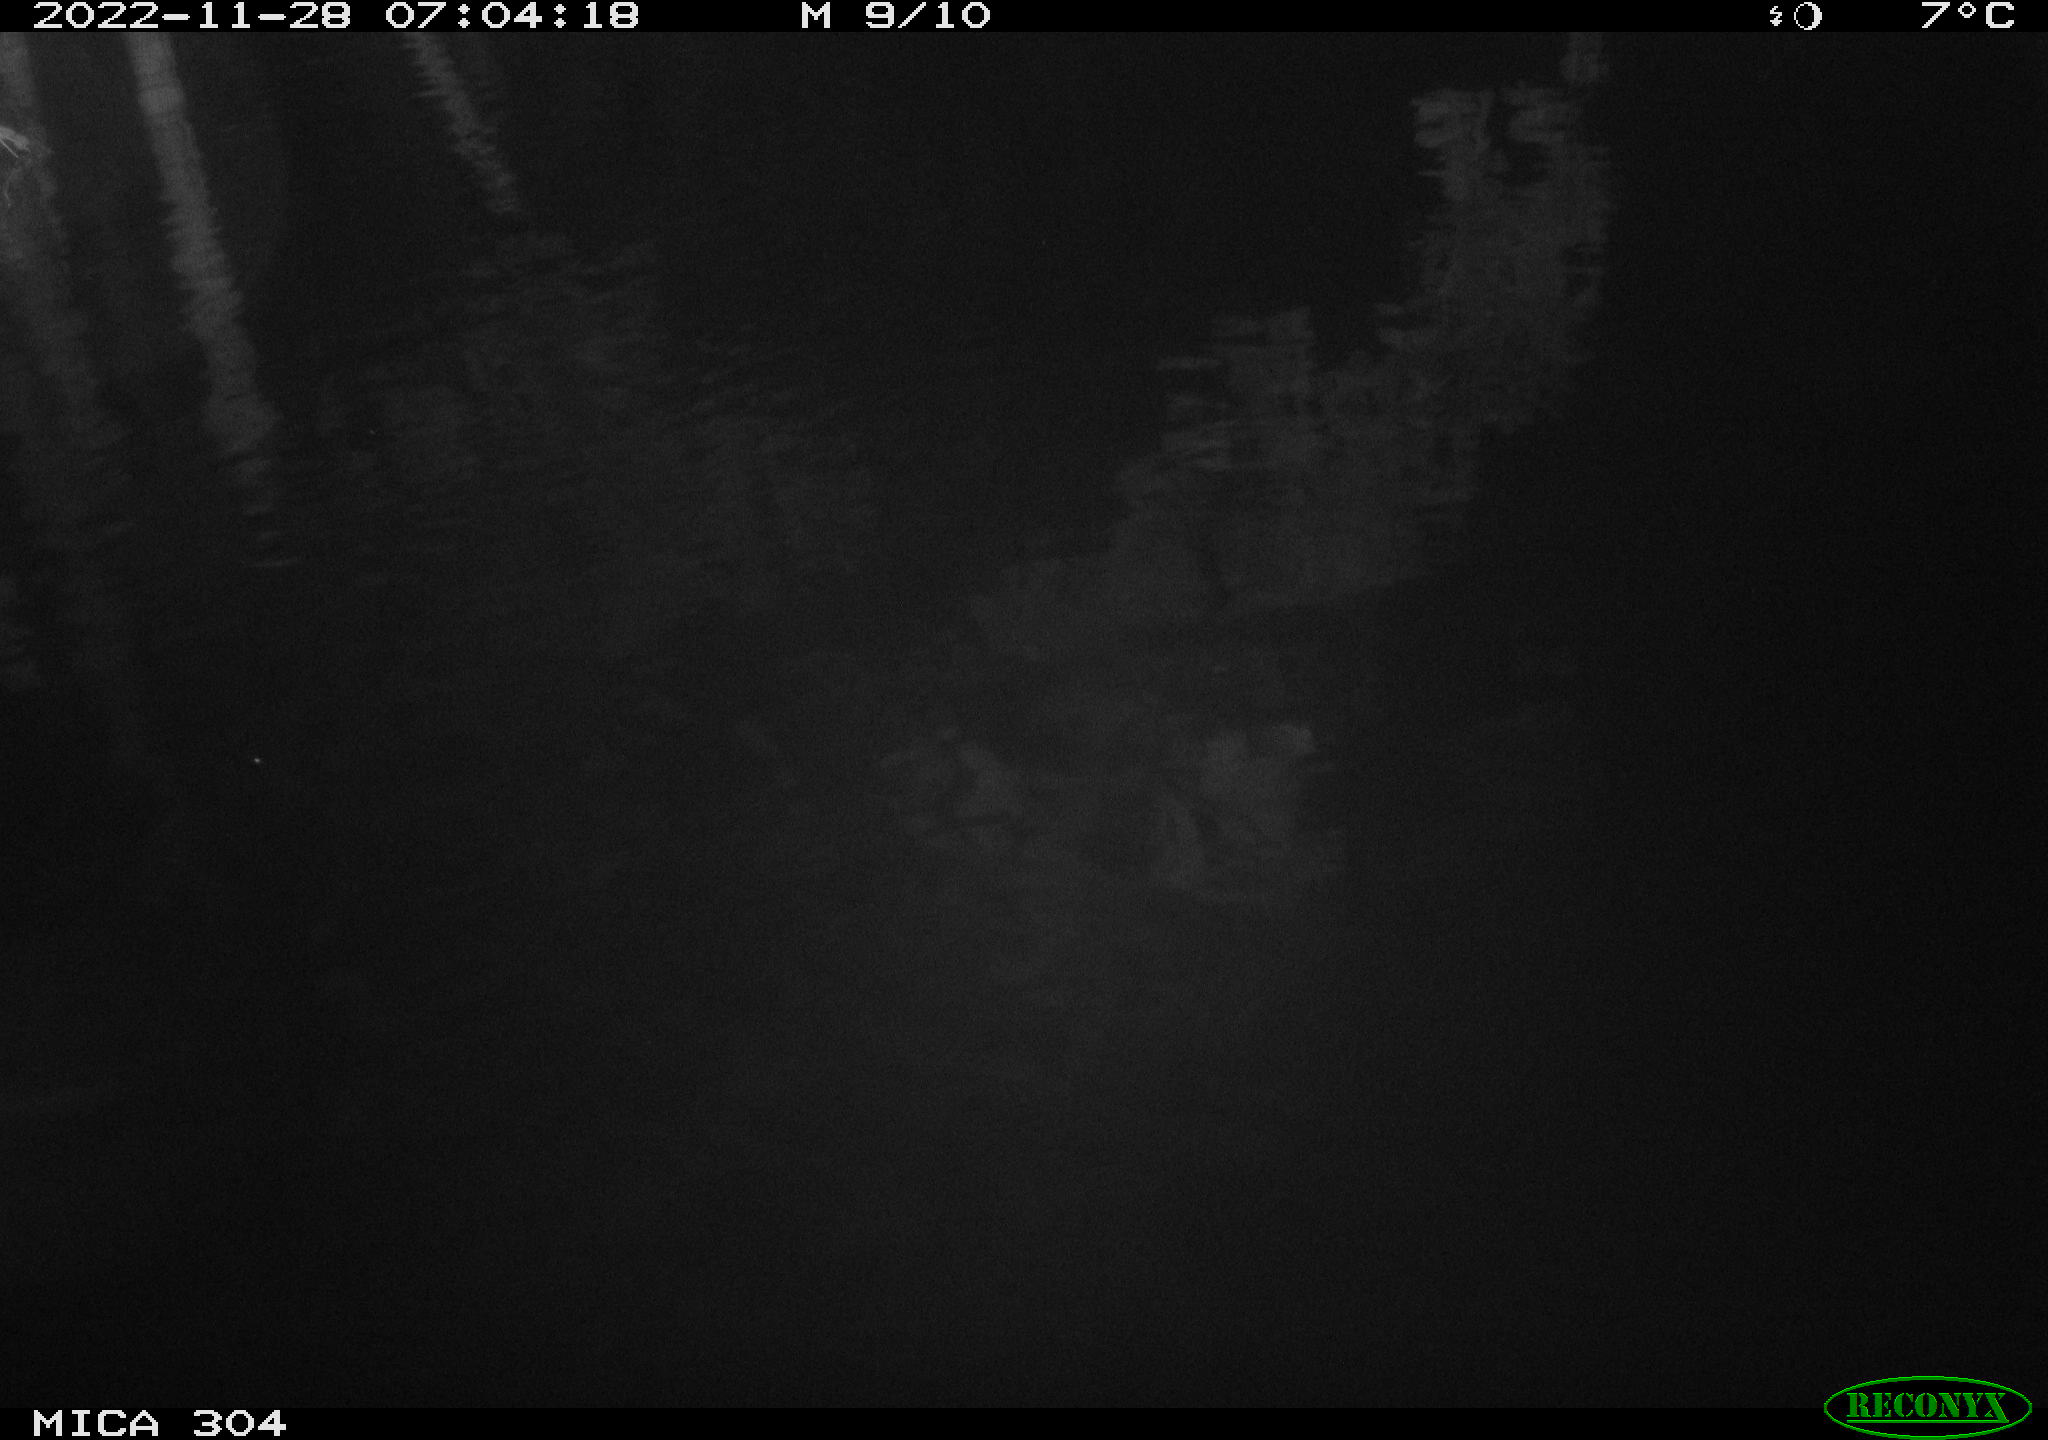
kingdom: Animalia
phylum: Chordata
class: Aves
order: Anseriformes
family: Anatidae
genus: Anas
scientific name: Anas
